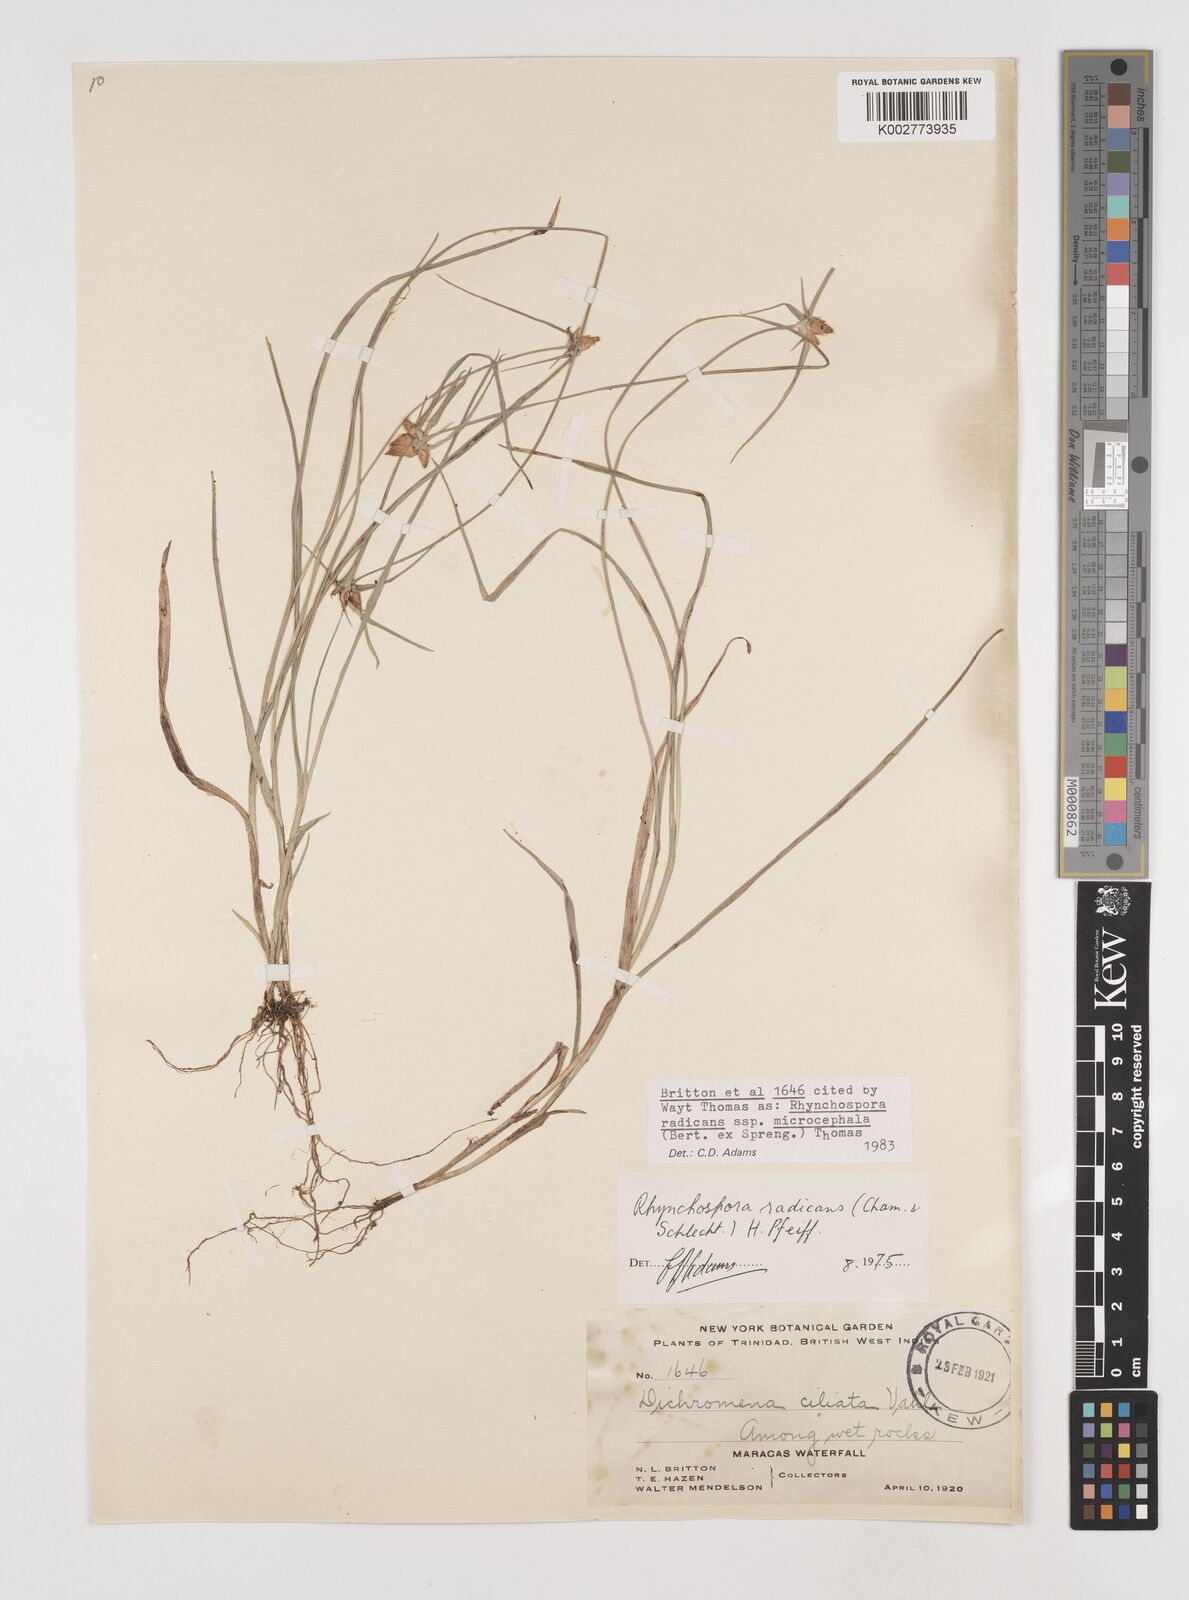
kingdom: Plantae
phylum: Tracheophyta
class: Liliopsida
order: Poales
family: Cyperaceae
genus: Rhynchospora
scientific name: Rhynchospora radicans
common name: Tropical whitetop
